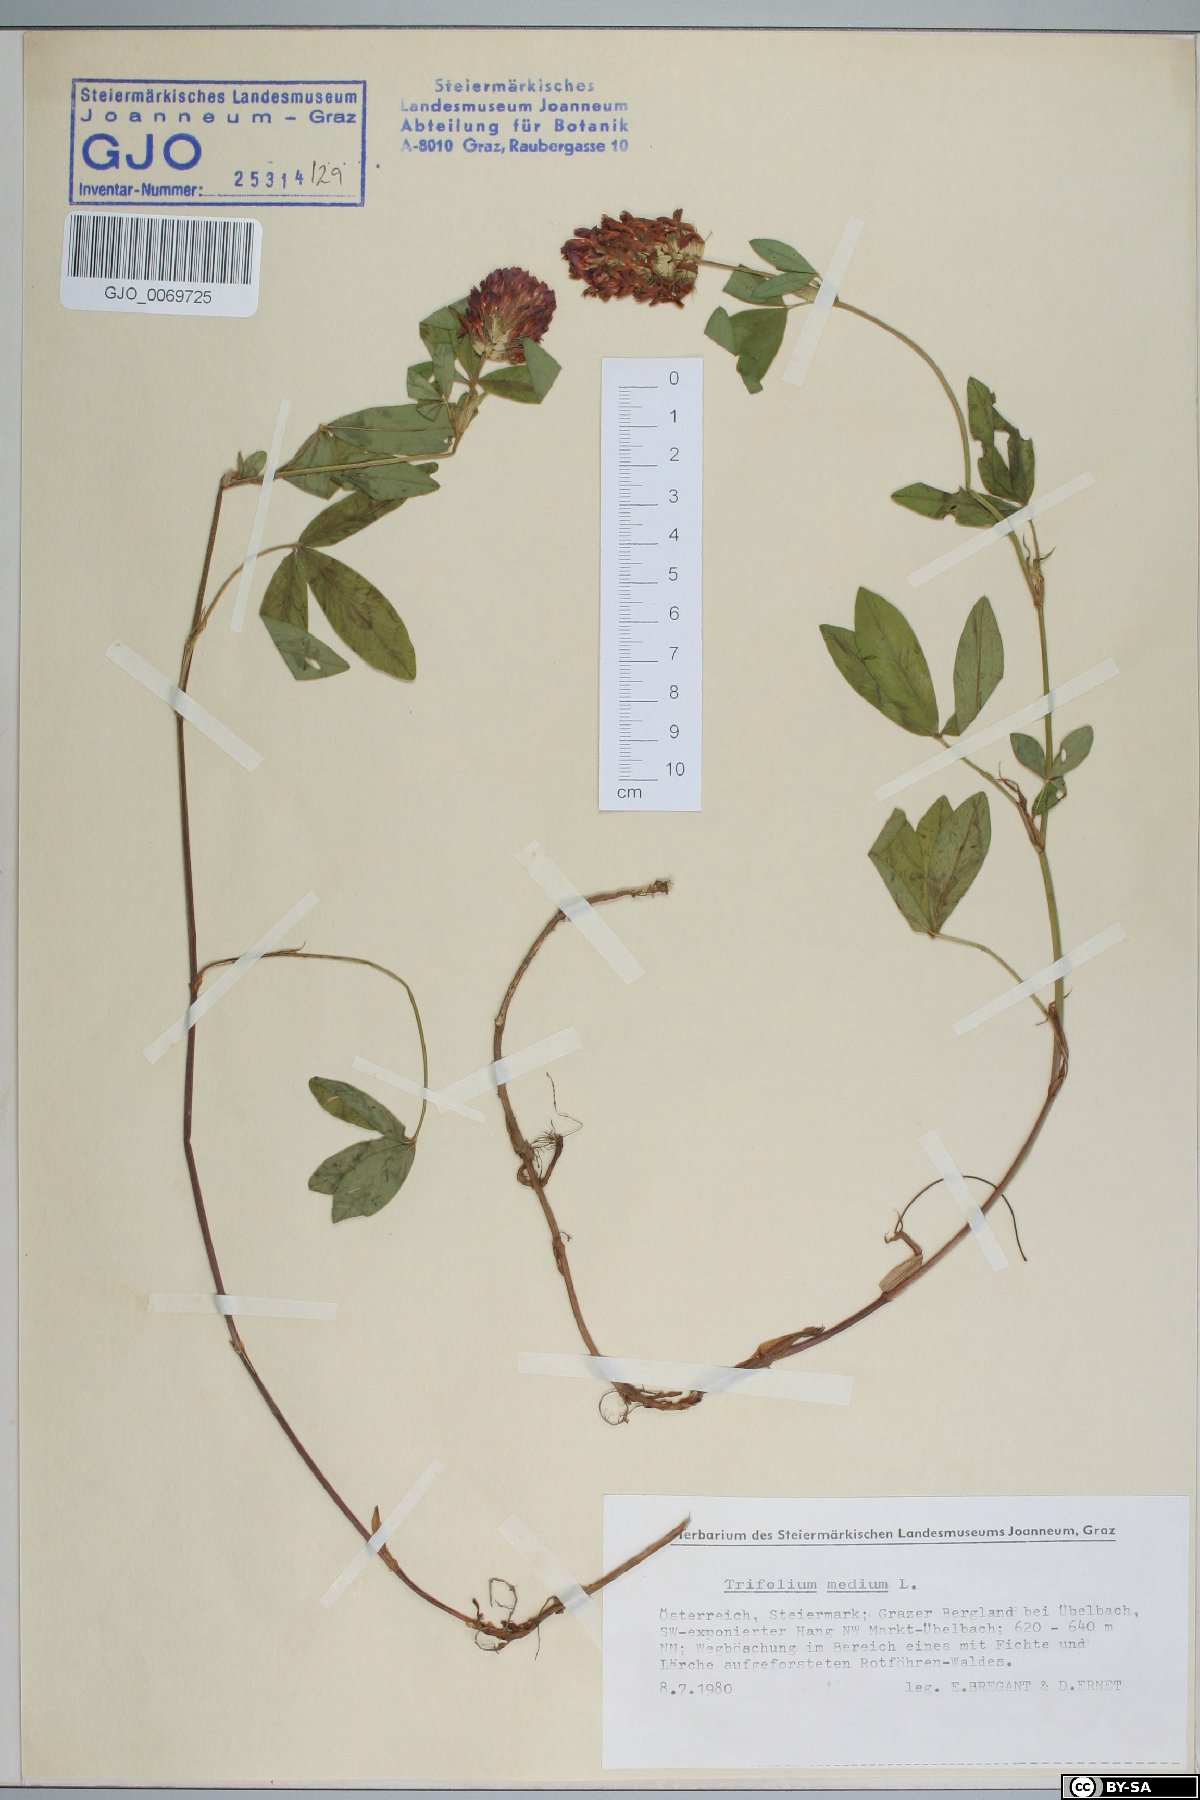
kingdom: Plantae
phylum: Tracheophyta
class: Magnoliopsida
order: Fabales
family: Fabaceae
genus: Trifolium
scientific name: Trifolium medium
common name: Zigzag clover
